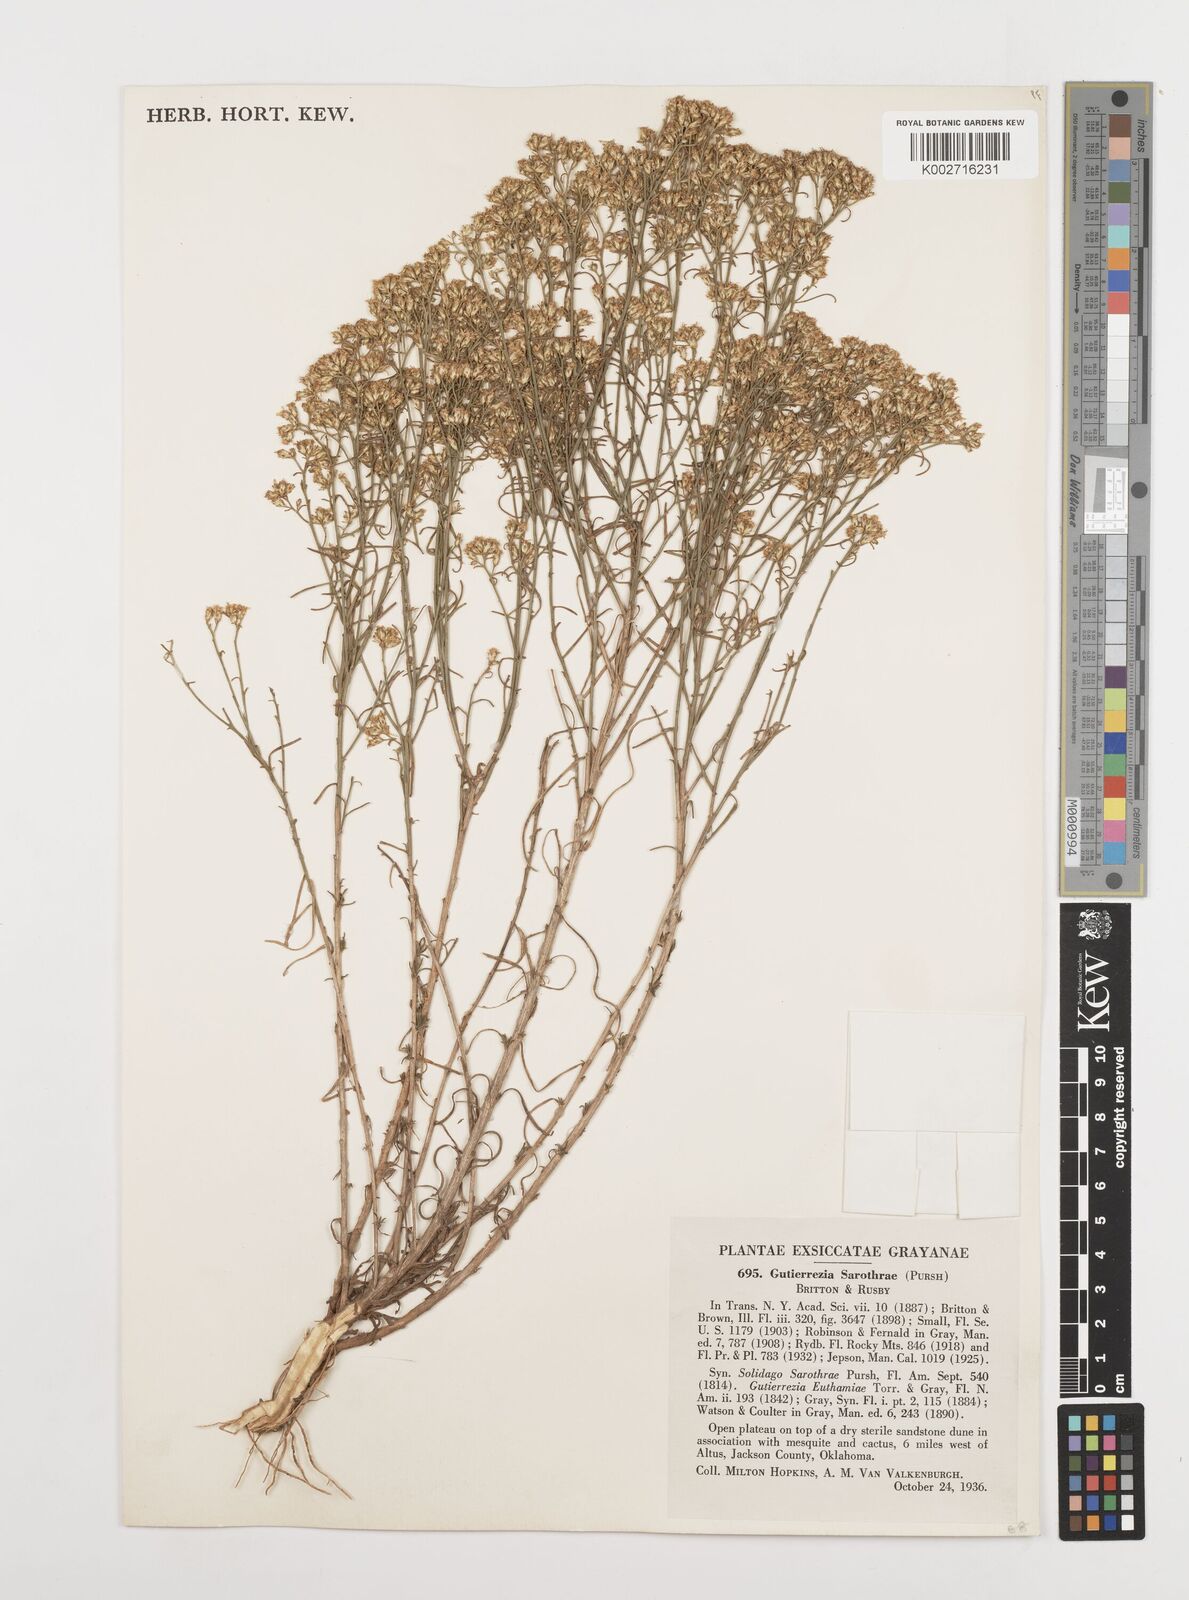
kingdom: Plantae
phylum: Tracheophyta
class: Magnoliopsida
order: Asterales
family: Asteraceae
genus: Gutierrezia
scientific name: Gutierrezia sarothrae
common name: Broom snakeweed
